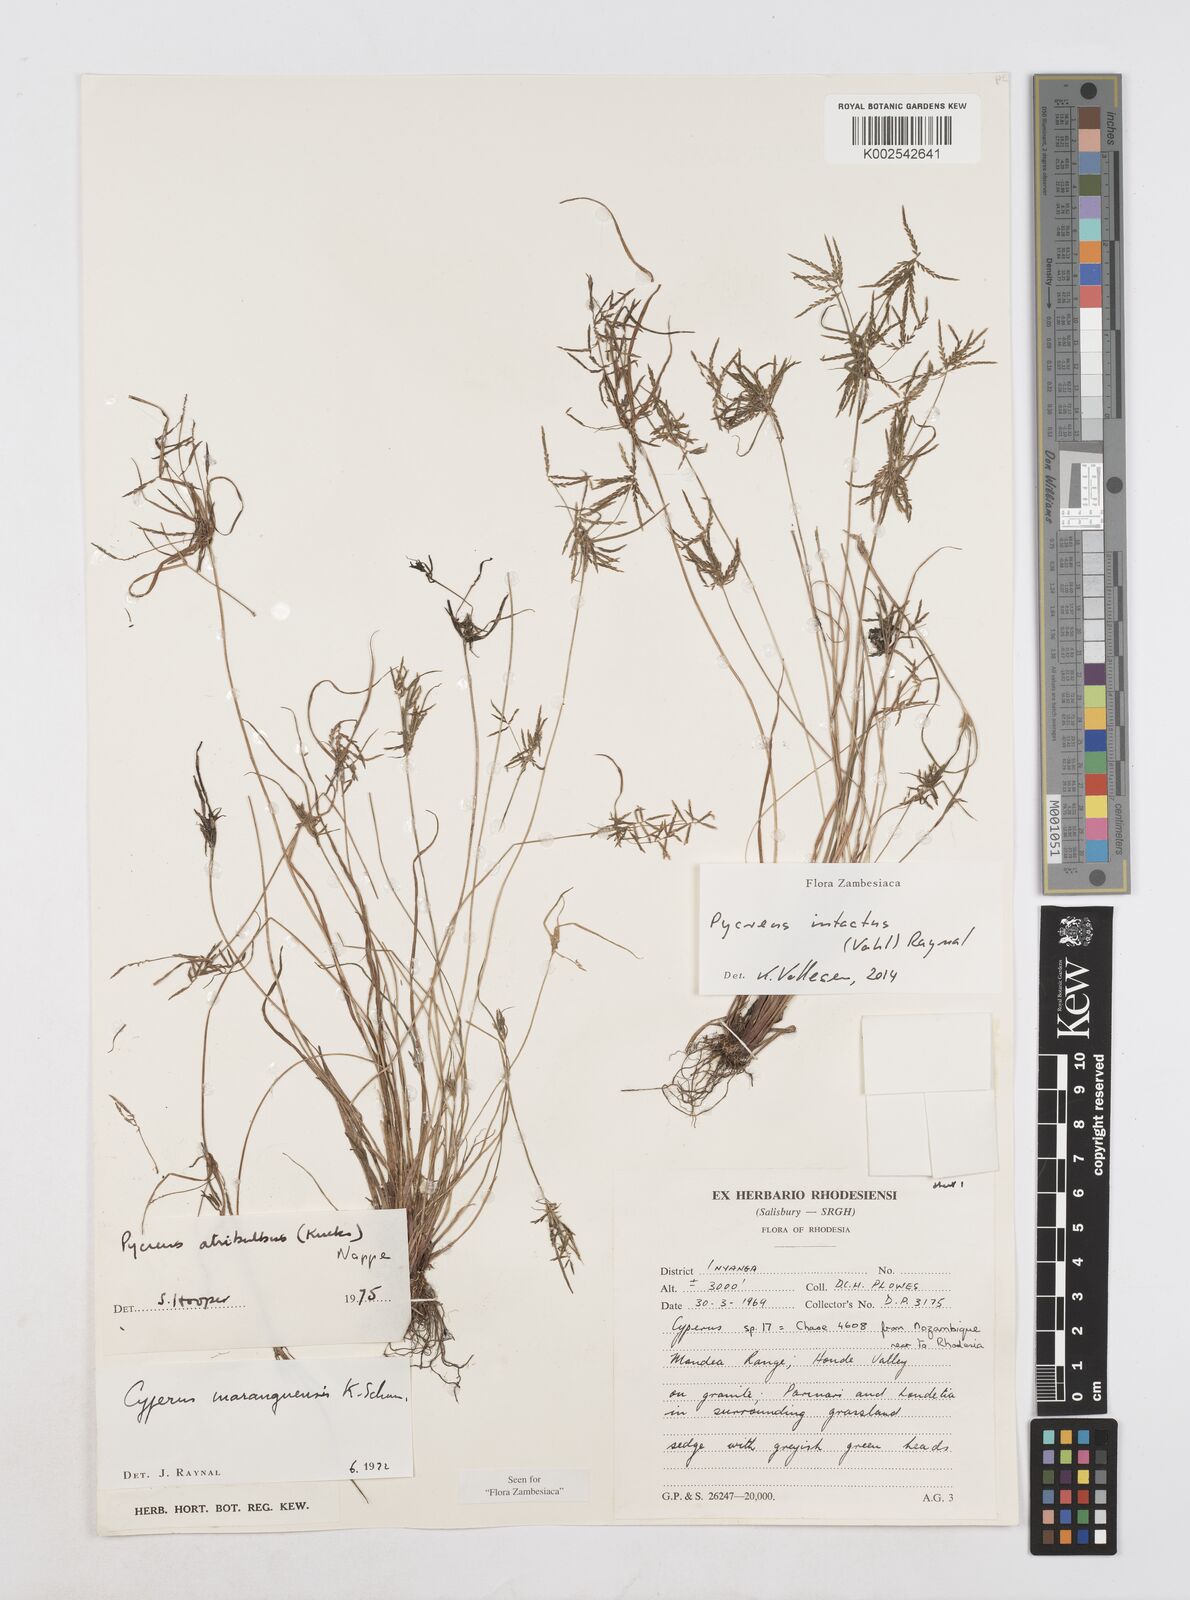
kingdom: Plantae
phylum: Tracheophyta
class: Liliopsida
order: Poales
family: Cyperaceae
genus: Cyperus
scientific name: Cyperus intactus
